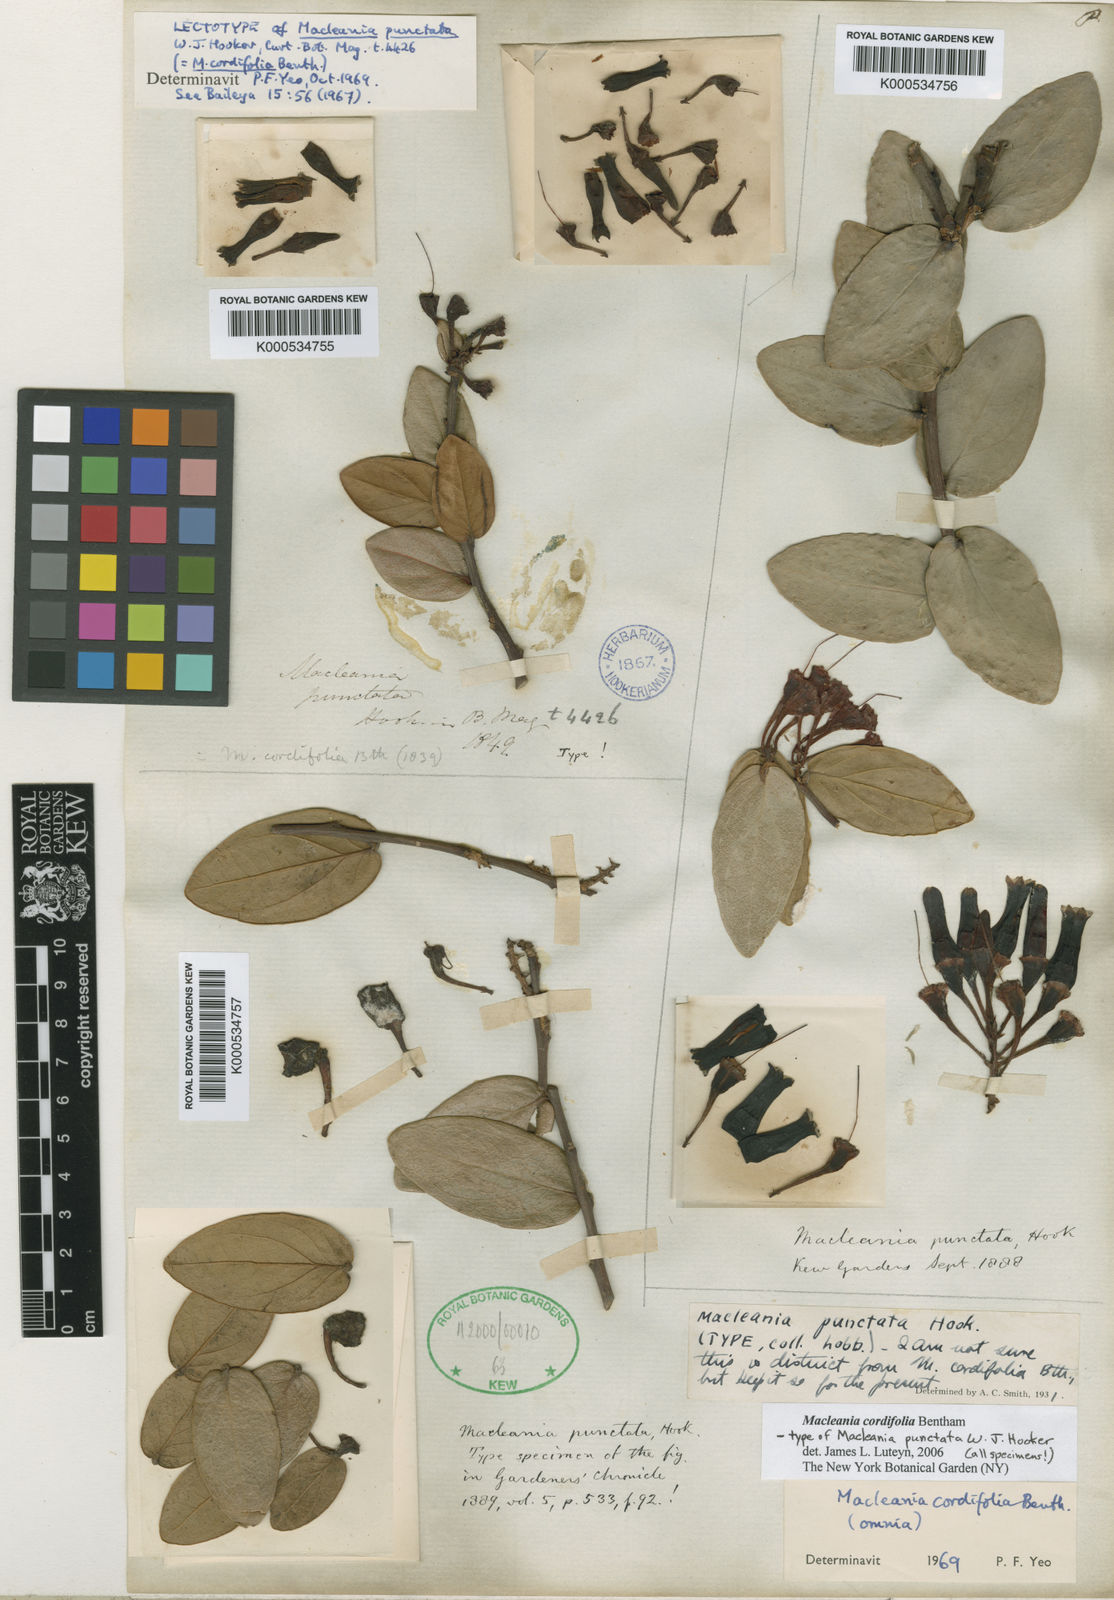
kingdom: Plantae
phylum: Tracheophyta
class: Magnoliopsida
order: Ericales
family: Ericaceae
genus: Macleania
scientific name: Macleania cordifolia
